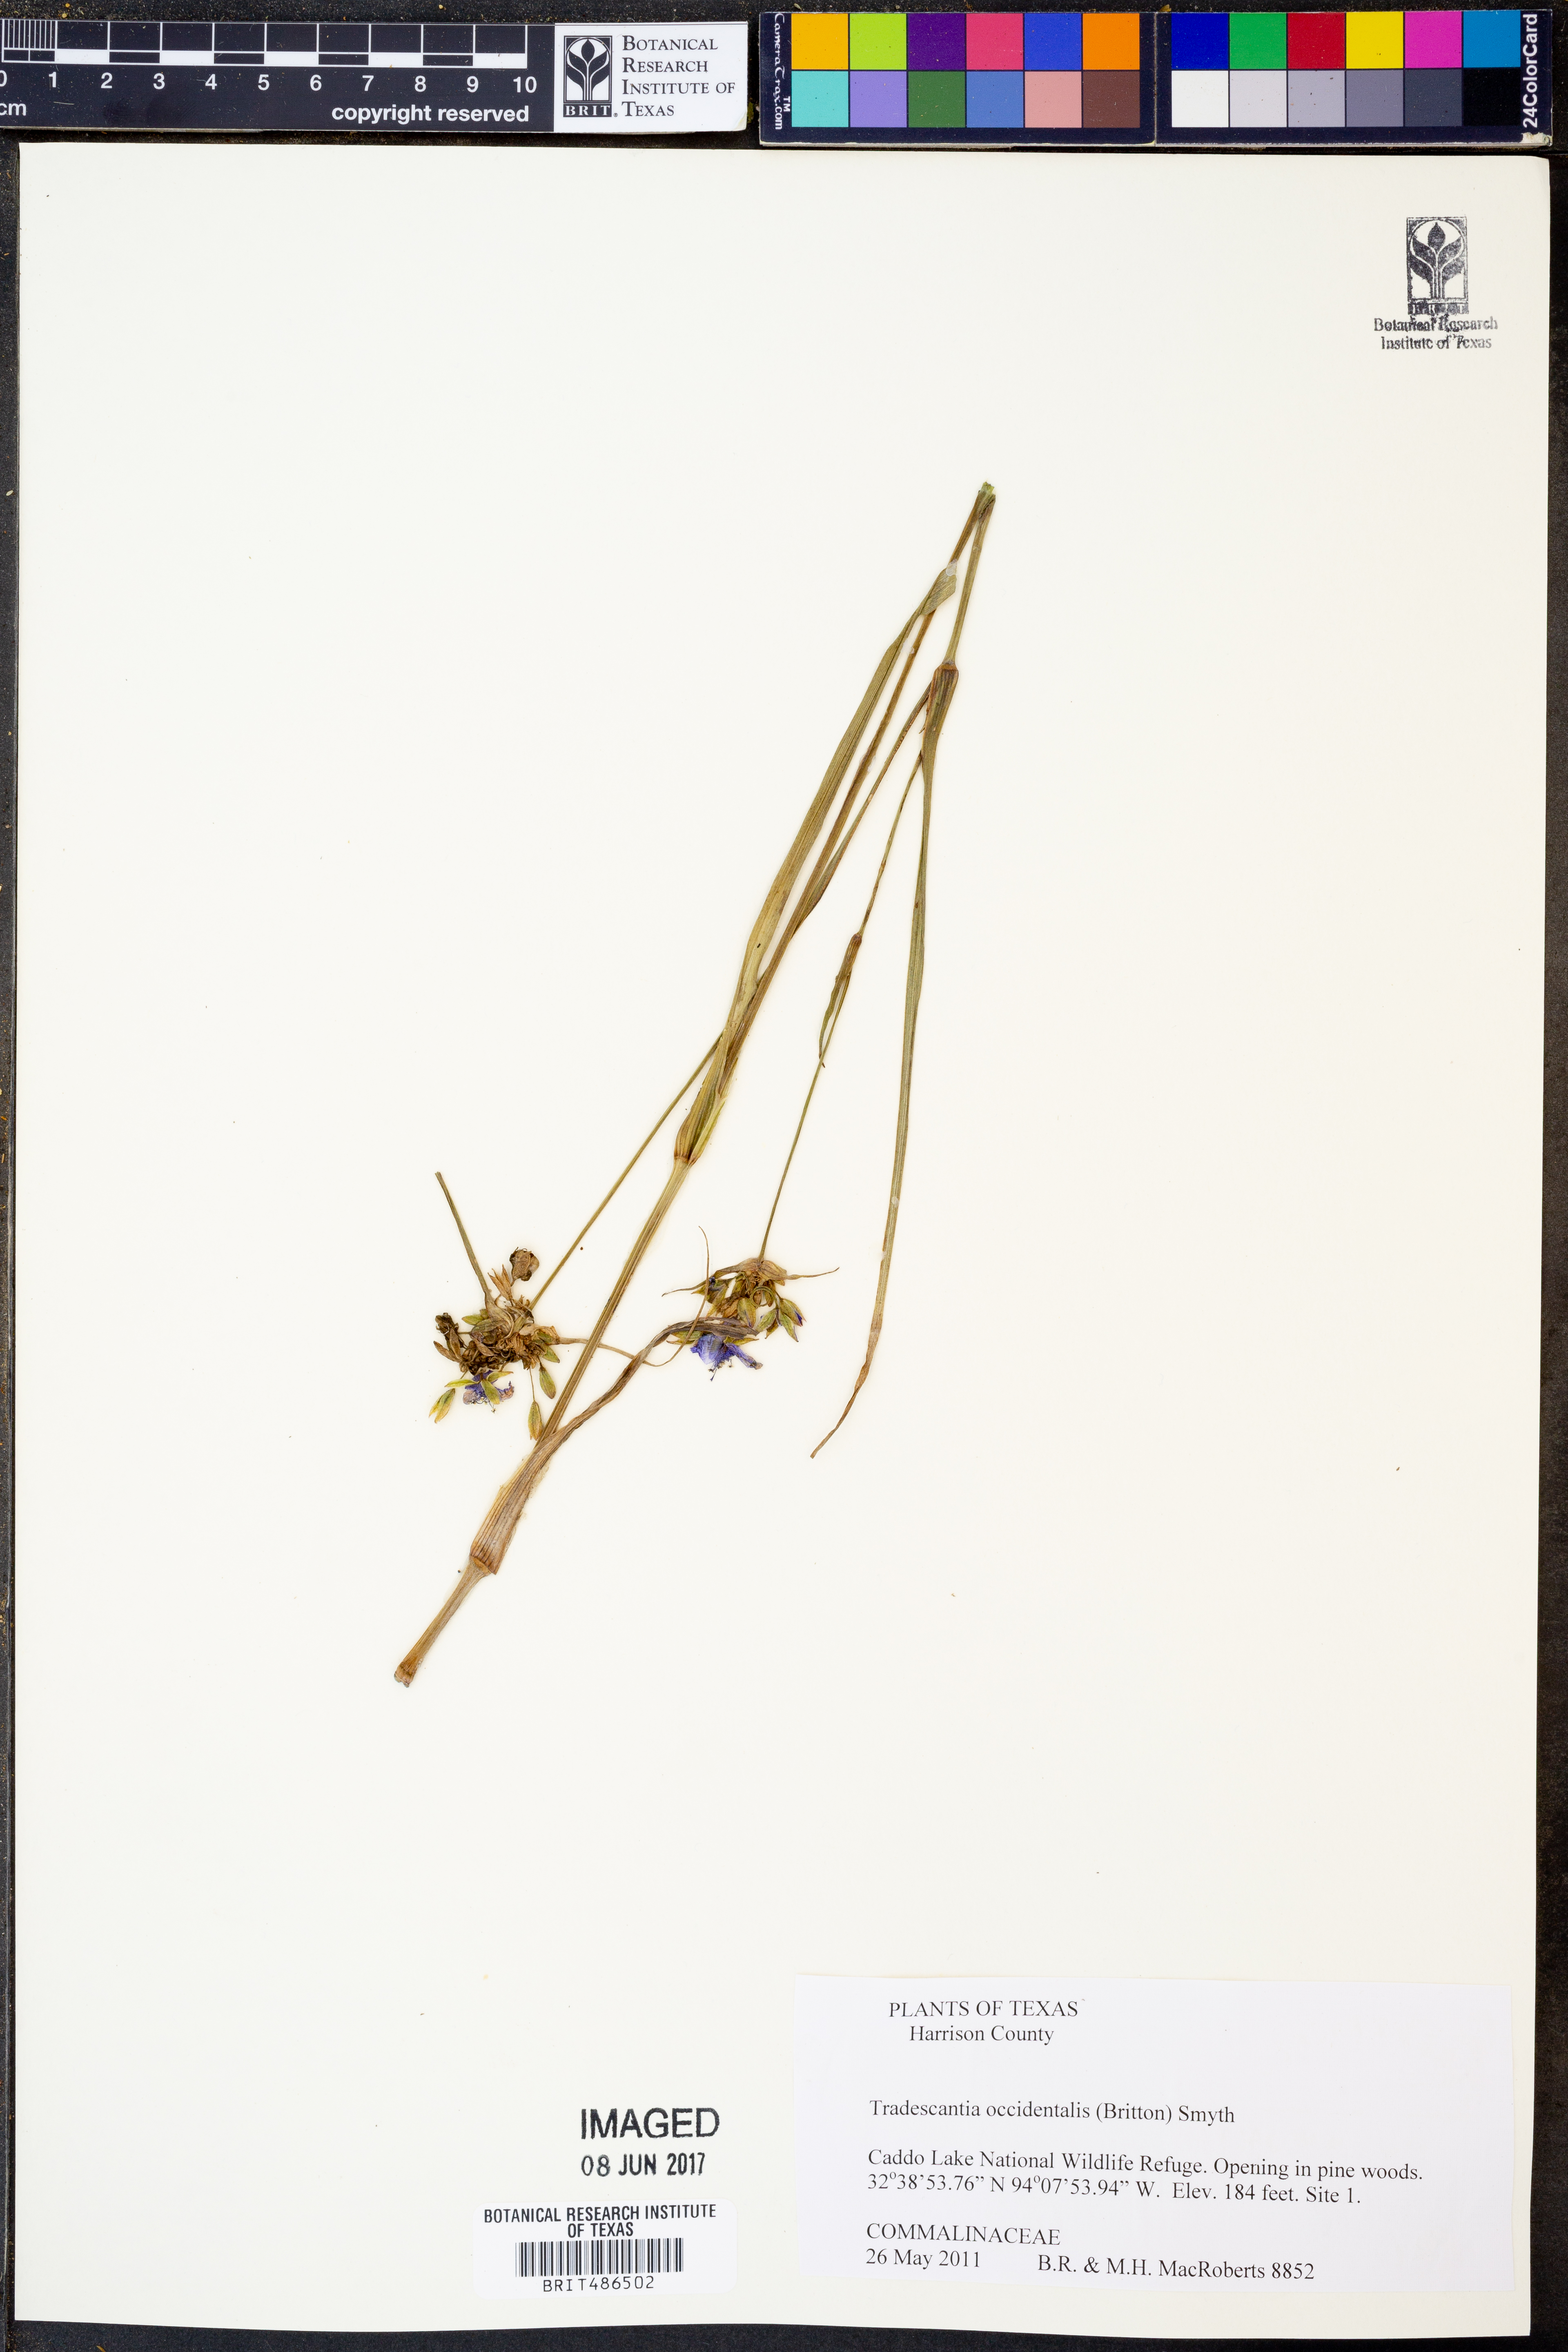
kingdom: Plantae
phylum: Tracheophyta
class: Liliopsida
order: Commelinales
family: Commelinaceae
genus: Tradescantia
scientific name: Tradescantia occidentalis
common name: Prairie spiderwort
